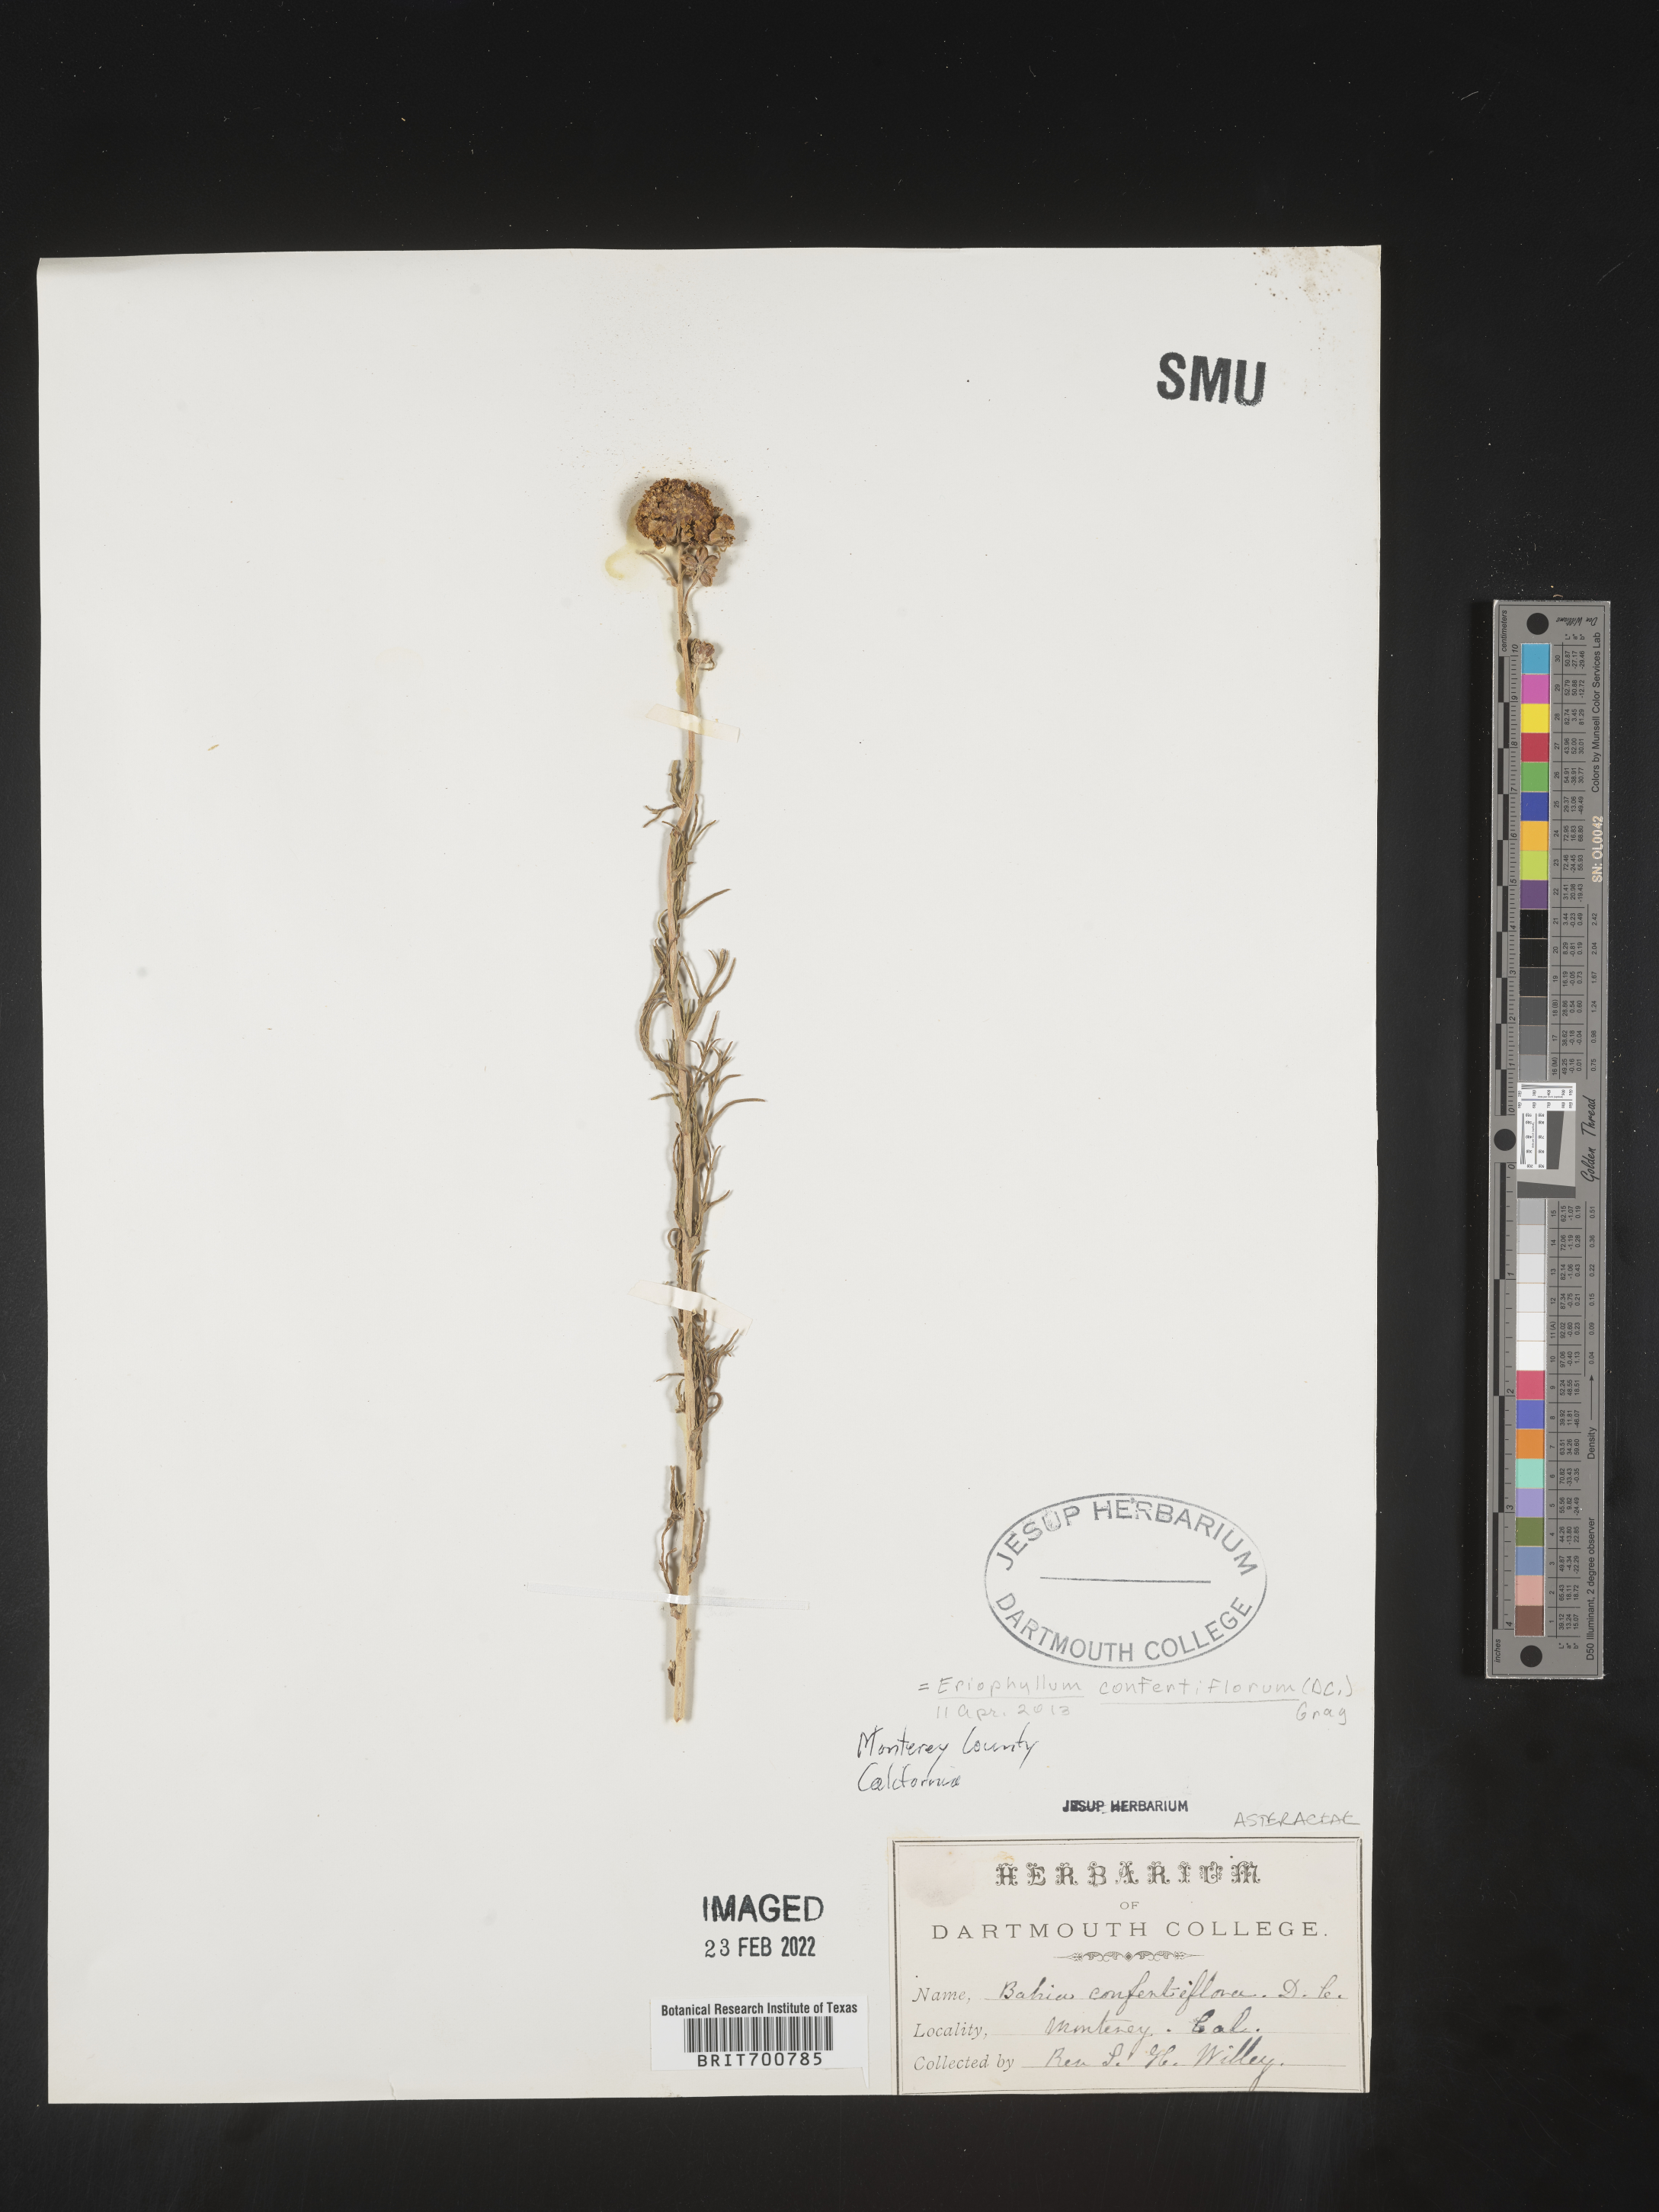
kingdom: Plantae
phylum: Tracheophyta
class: Magnoliopsida
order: Asterales
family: Asteraceae
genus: Eriophyllum
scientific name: Eriophyllum confertiflorum
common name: Golden-yarrow
